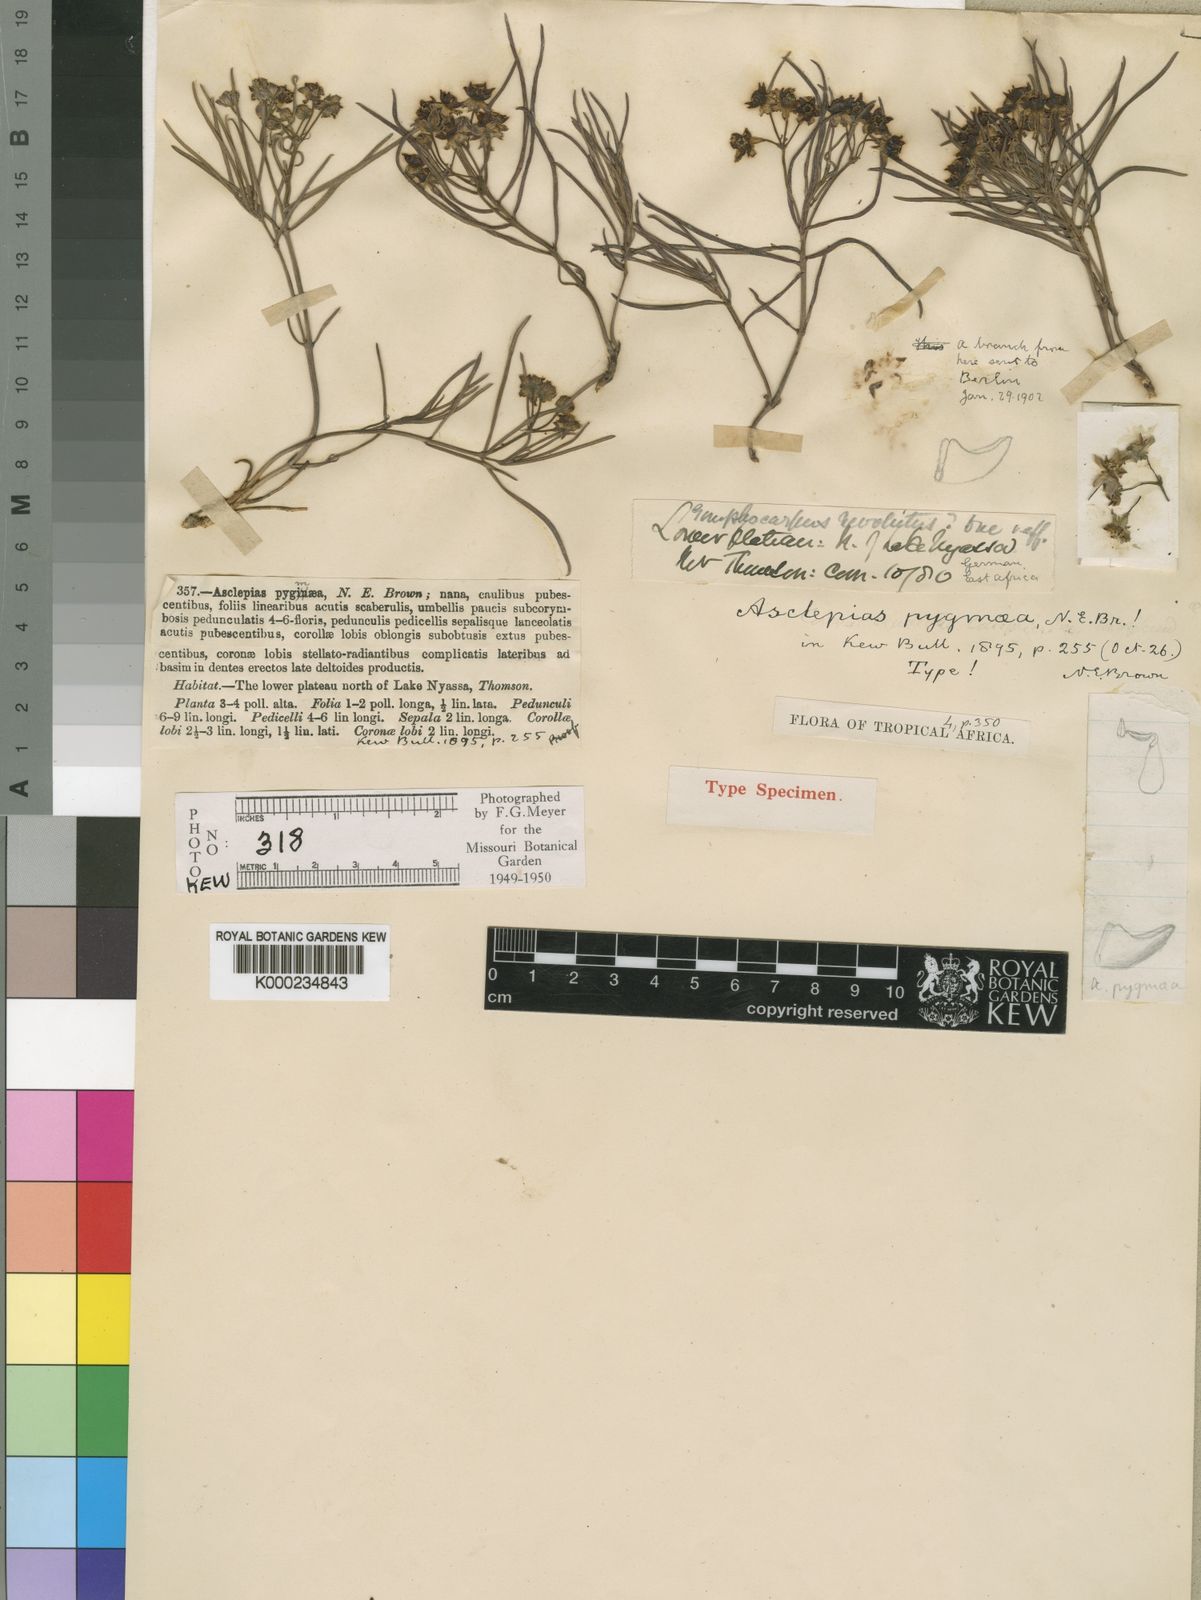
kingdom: Plantae
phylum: Tracheophyta
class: Magnoliopsida
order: Gentianales
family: Apocynaceae
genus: Asclepias
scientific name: Asclepias pygmaea
